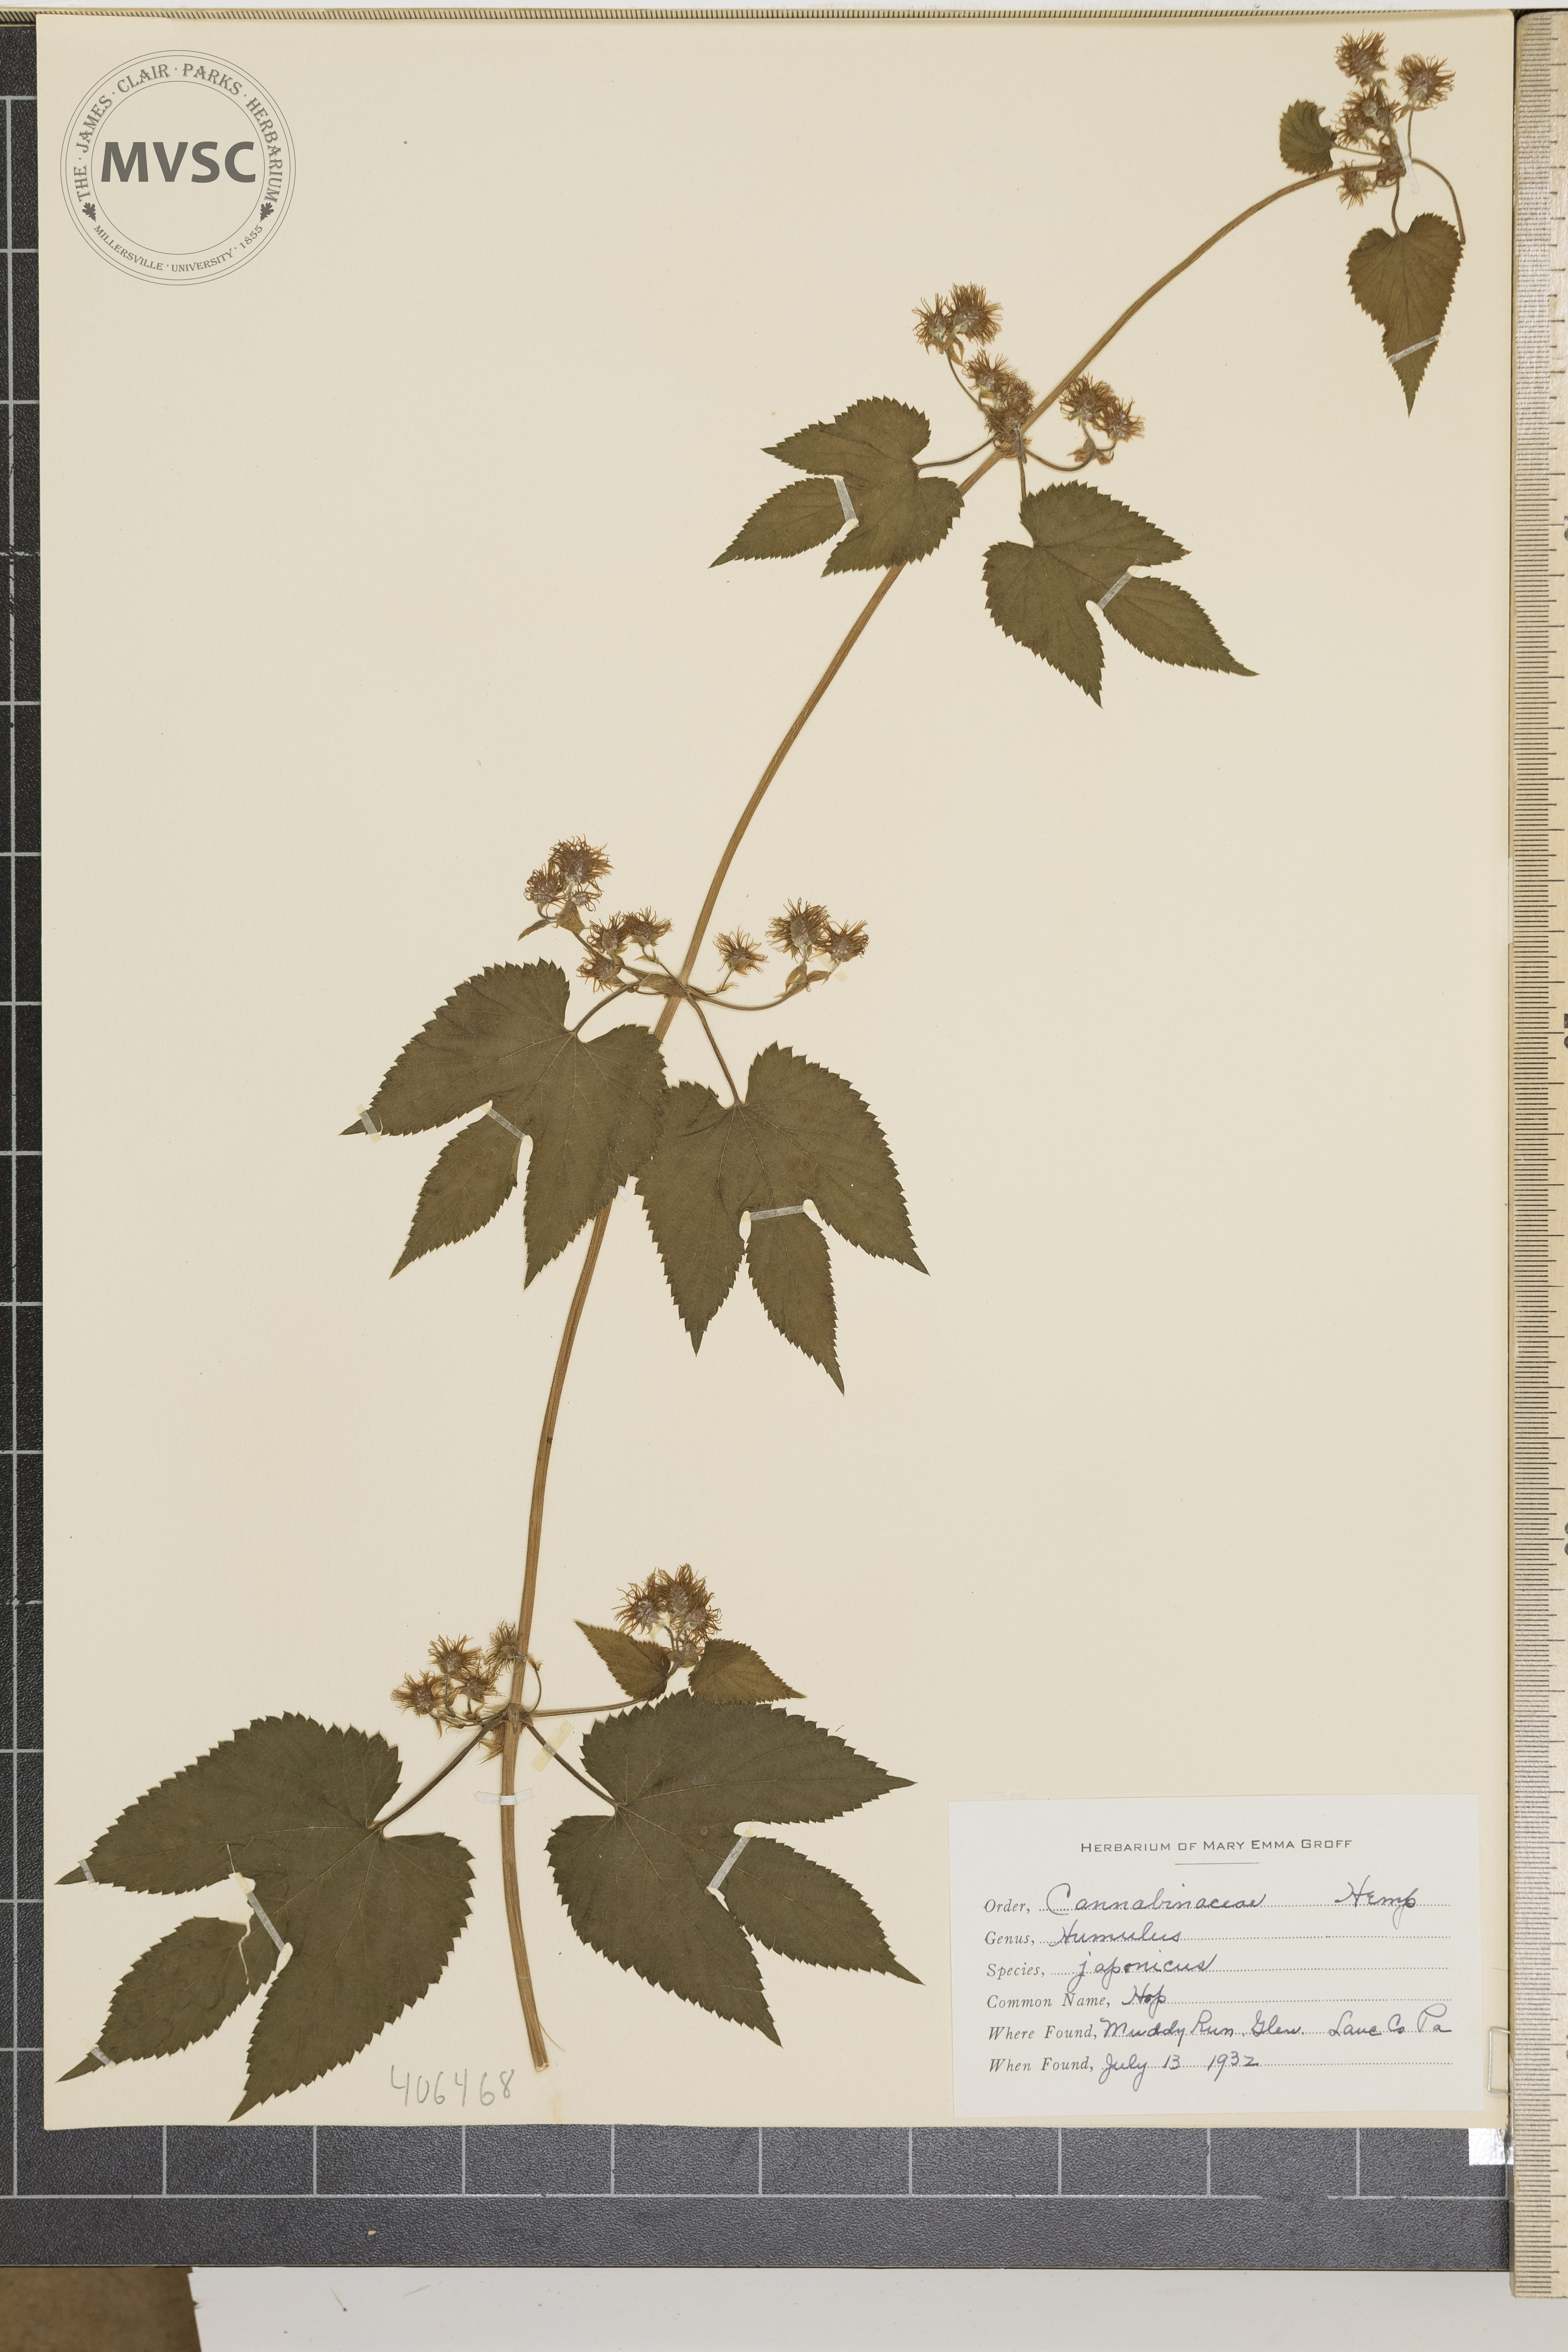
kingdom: Plantae
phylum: Tracheophyta
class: Magnoliopsida
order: Rosales
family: Cannabaceae
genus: Humulus
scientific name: Humulus scandens
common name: Japanese hops
